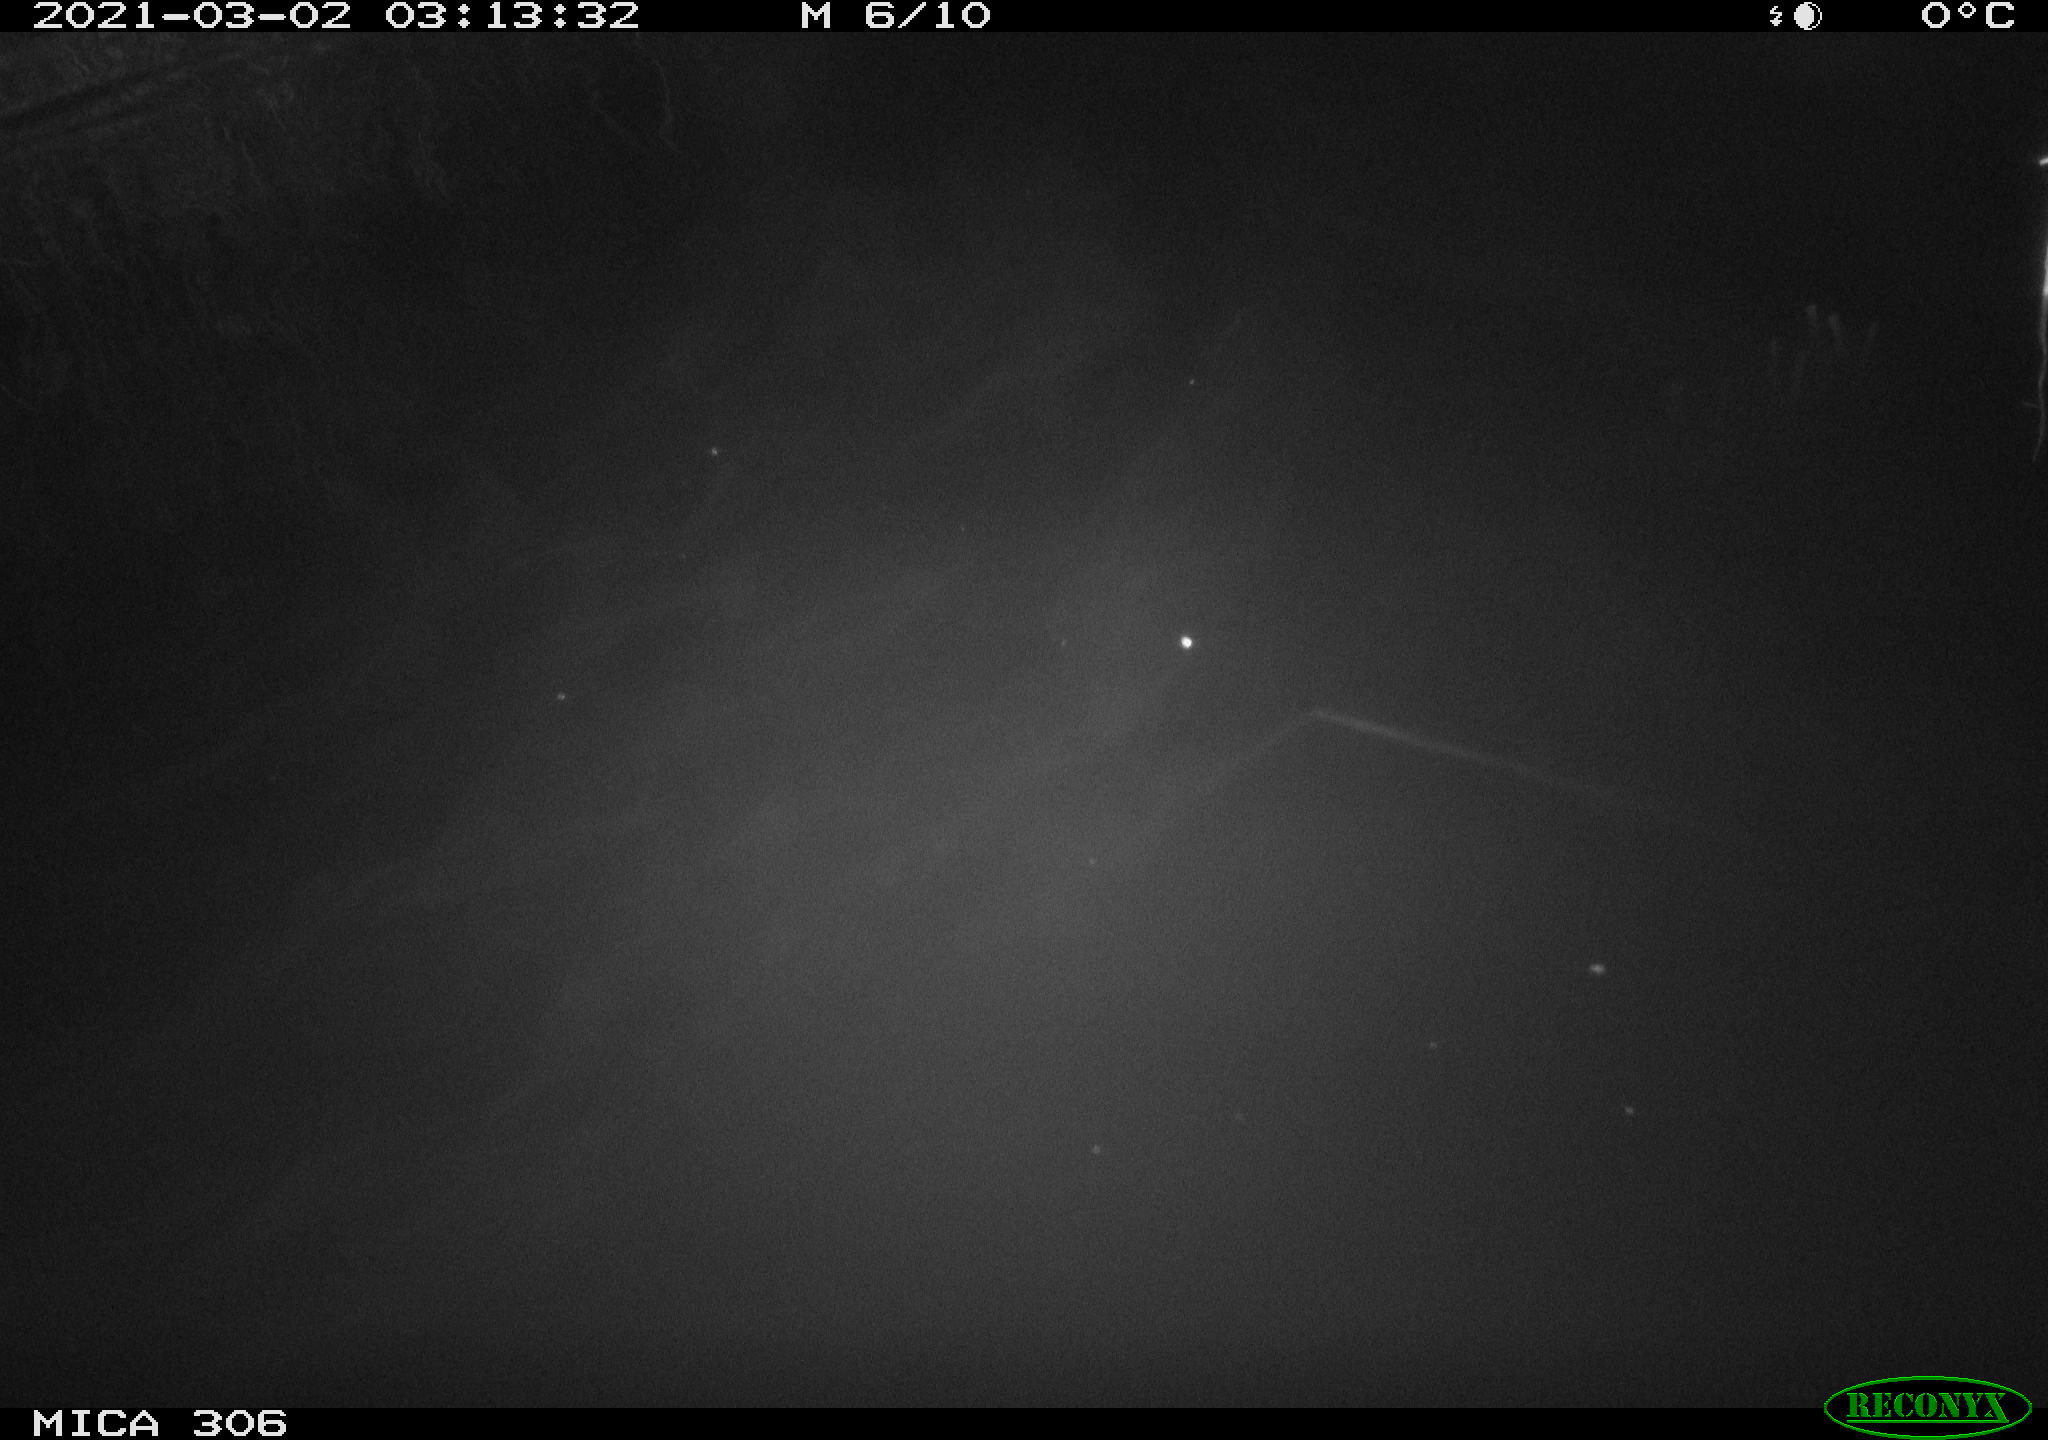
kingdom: Animalia
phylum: Chordata
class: Mammalia
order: Rodentia
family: Cricetidae
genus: Ondatra
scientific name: Ondatra zibethicus
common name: Muskrat
